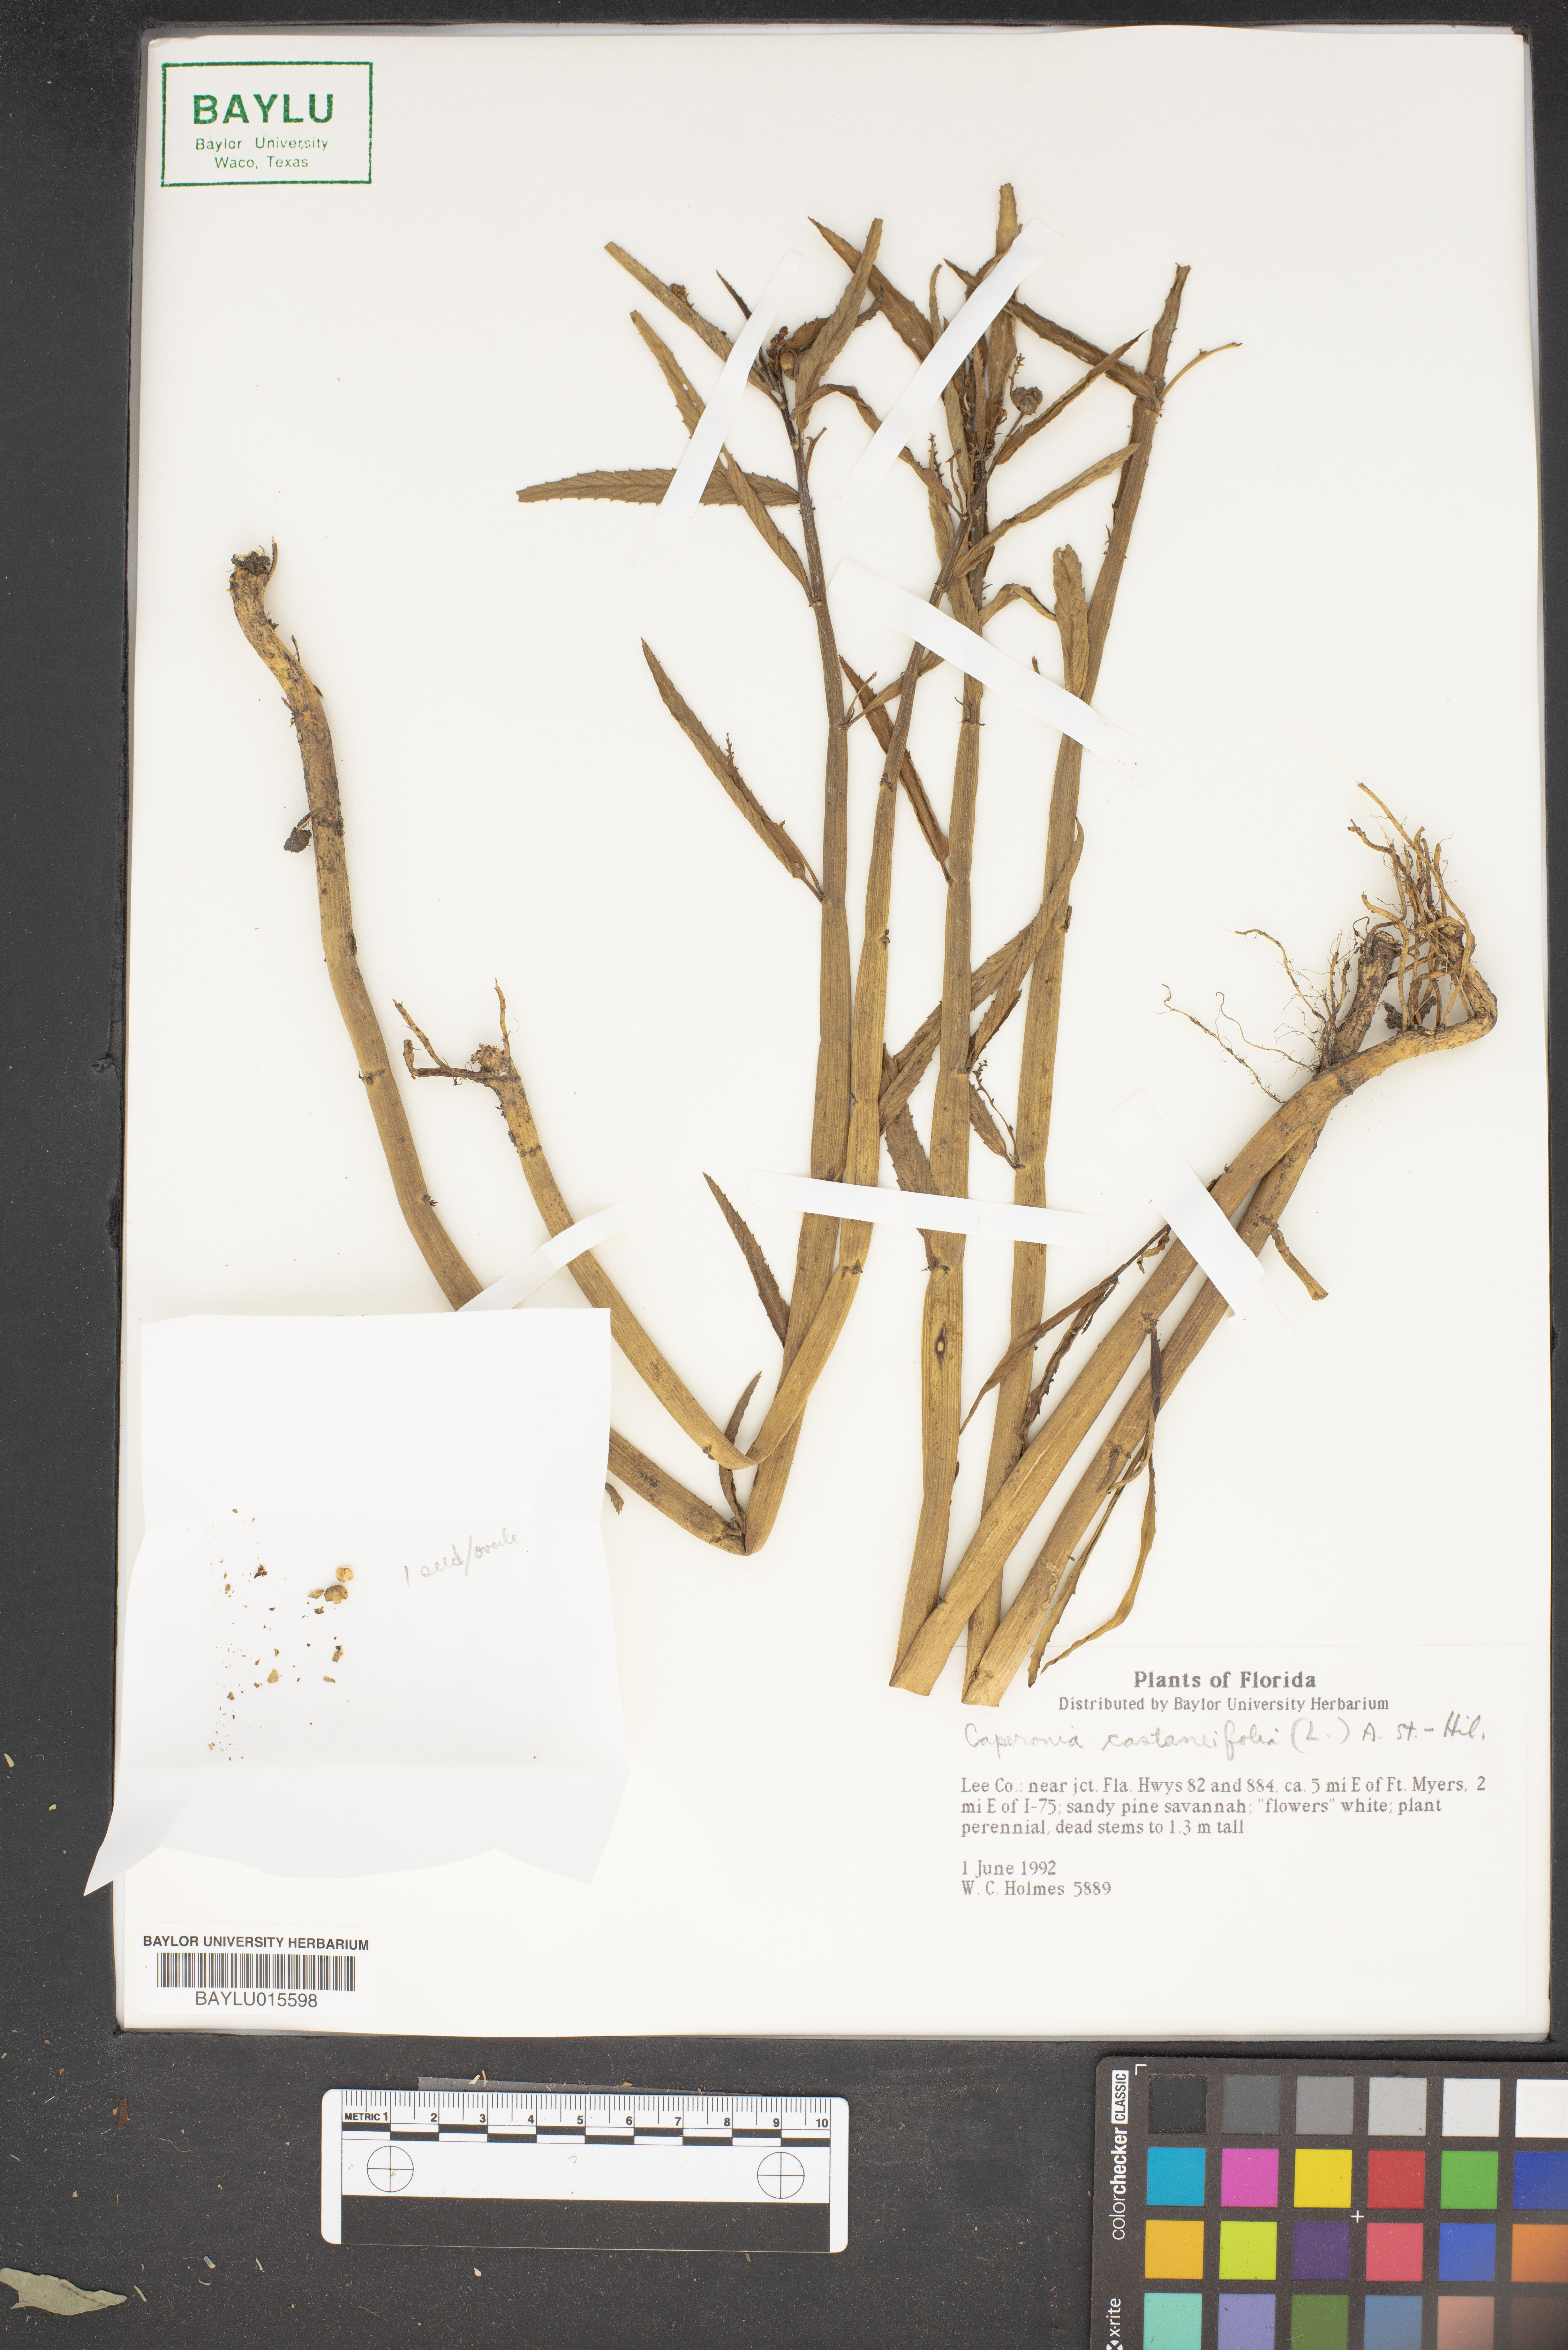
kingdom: Plantae
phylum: Tracheophyta
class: Magnoliopsida
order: Malpighiales
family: Euphorbiaceae
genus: Caperonia
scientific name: Caperonia castaneifolia
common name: Chestnutleaf false croton
